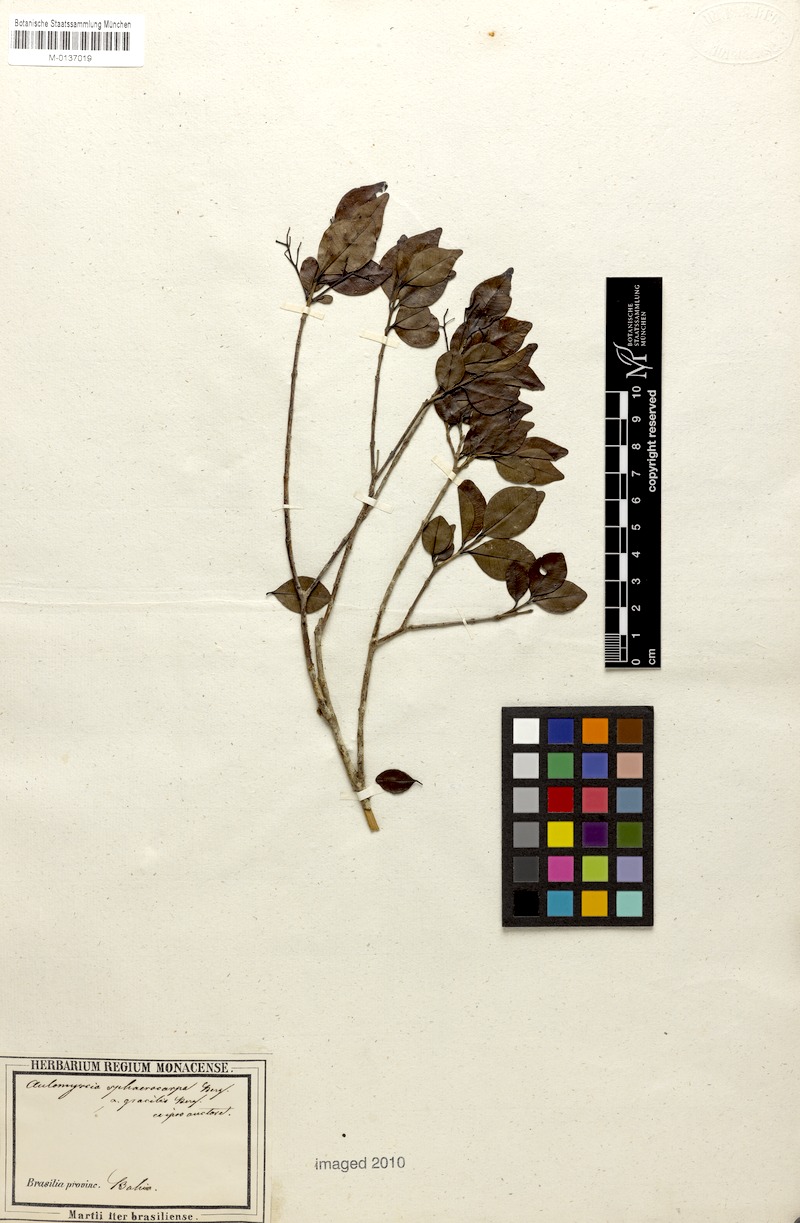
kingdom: Plantae
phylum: Tracheophyta
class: Magnoliopsida
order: Myrtales
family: Myrtaceae
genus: Myrcia
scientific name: Myrcia multiflora
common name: Pedra hume
